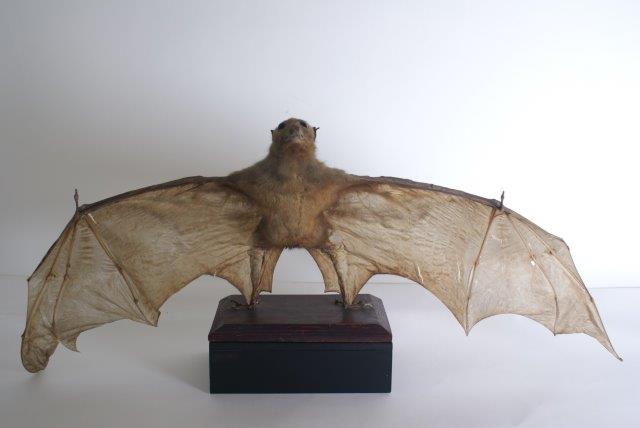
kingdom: Animalia
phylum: Chordata
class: Mammalia
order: Chiroptera
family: Pteropodidae
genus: Pteropus
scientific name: Pteropus vampyrus
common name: Large Flying Fox
